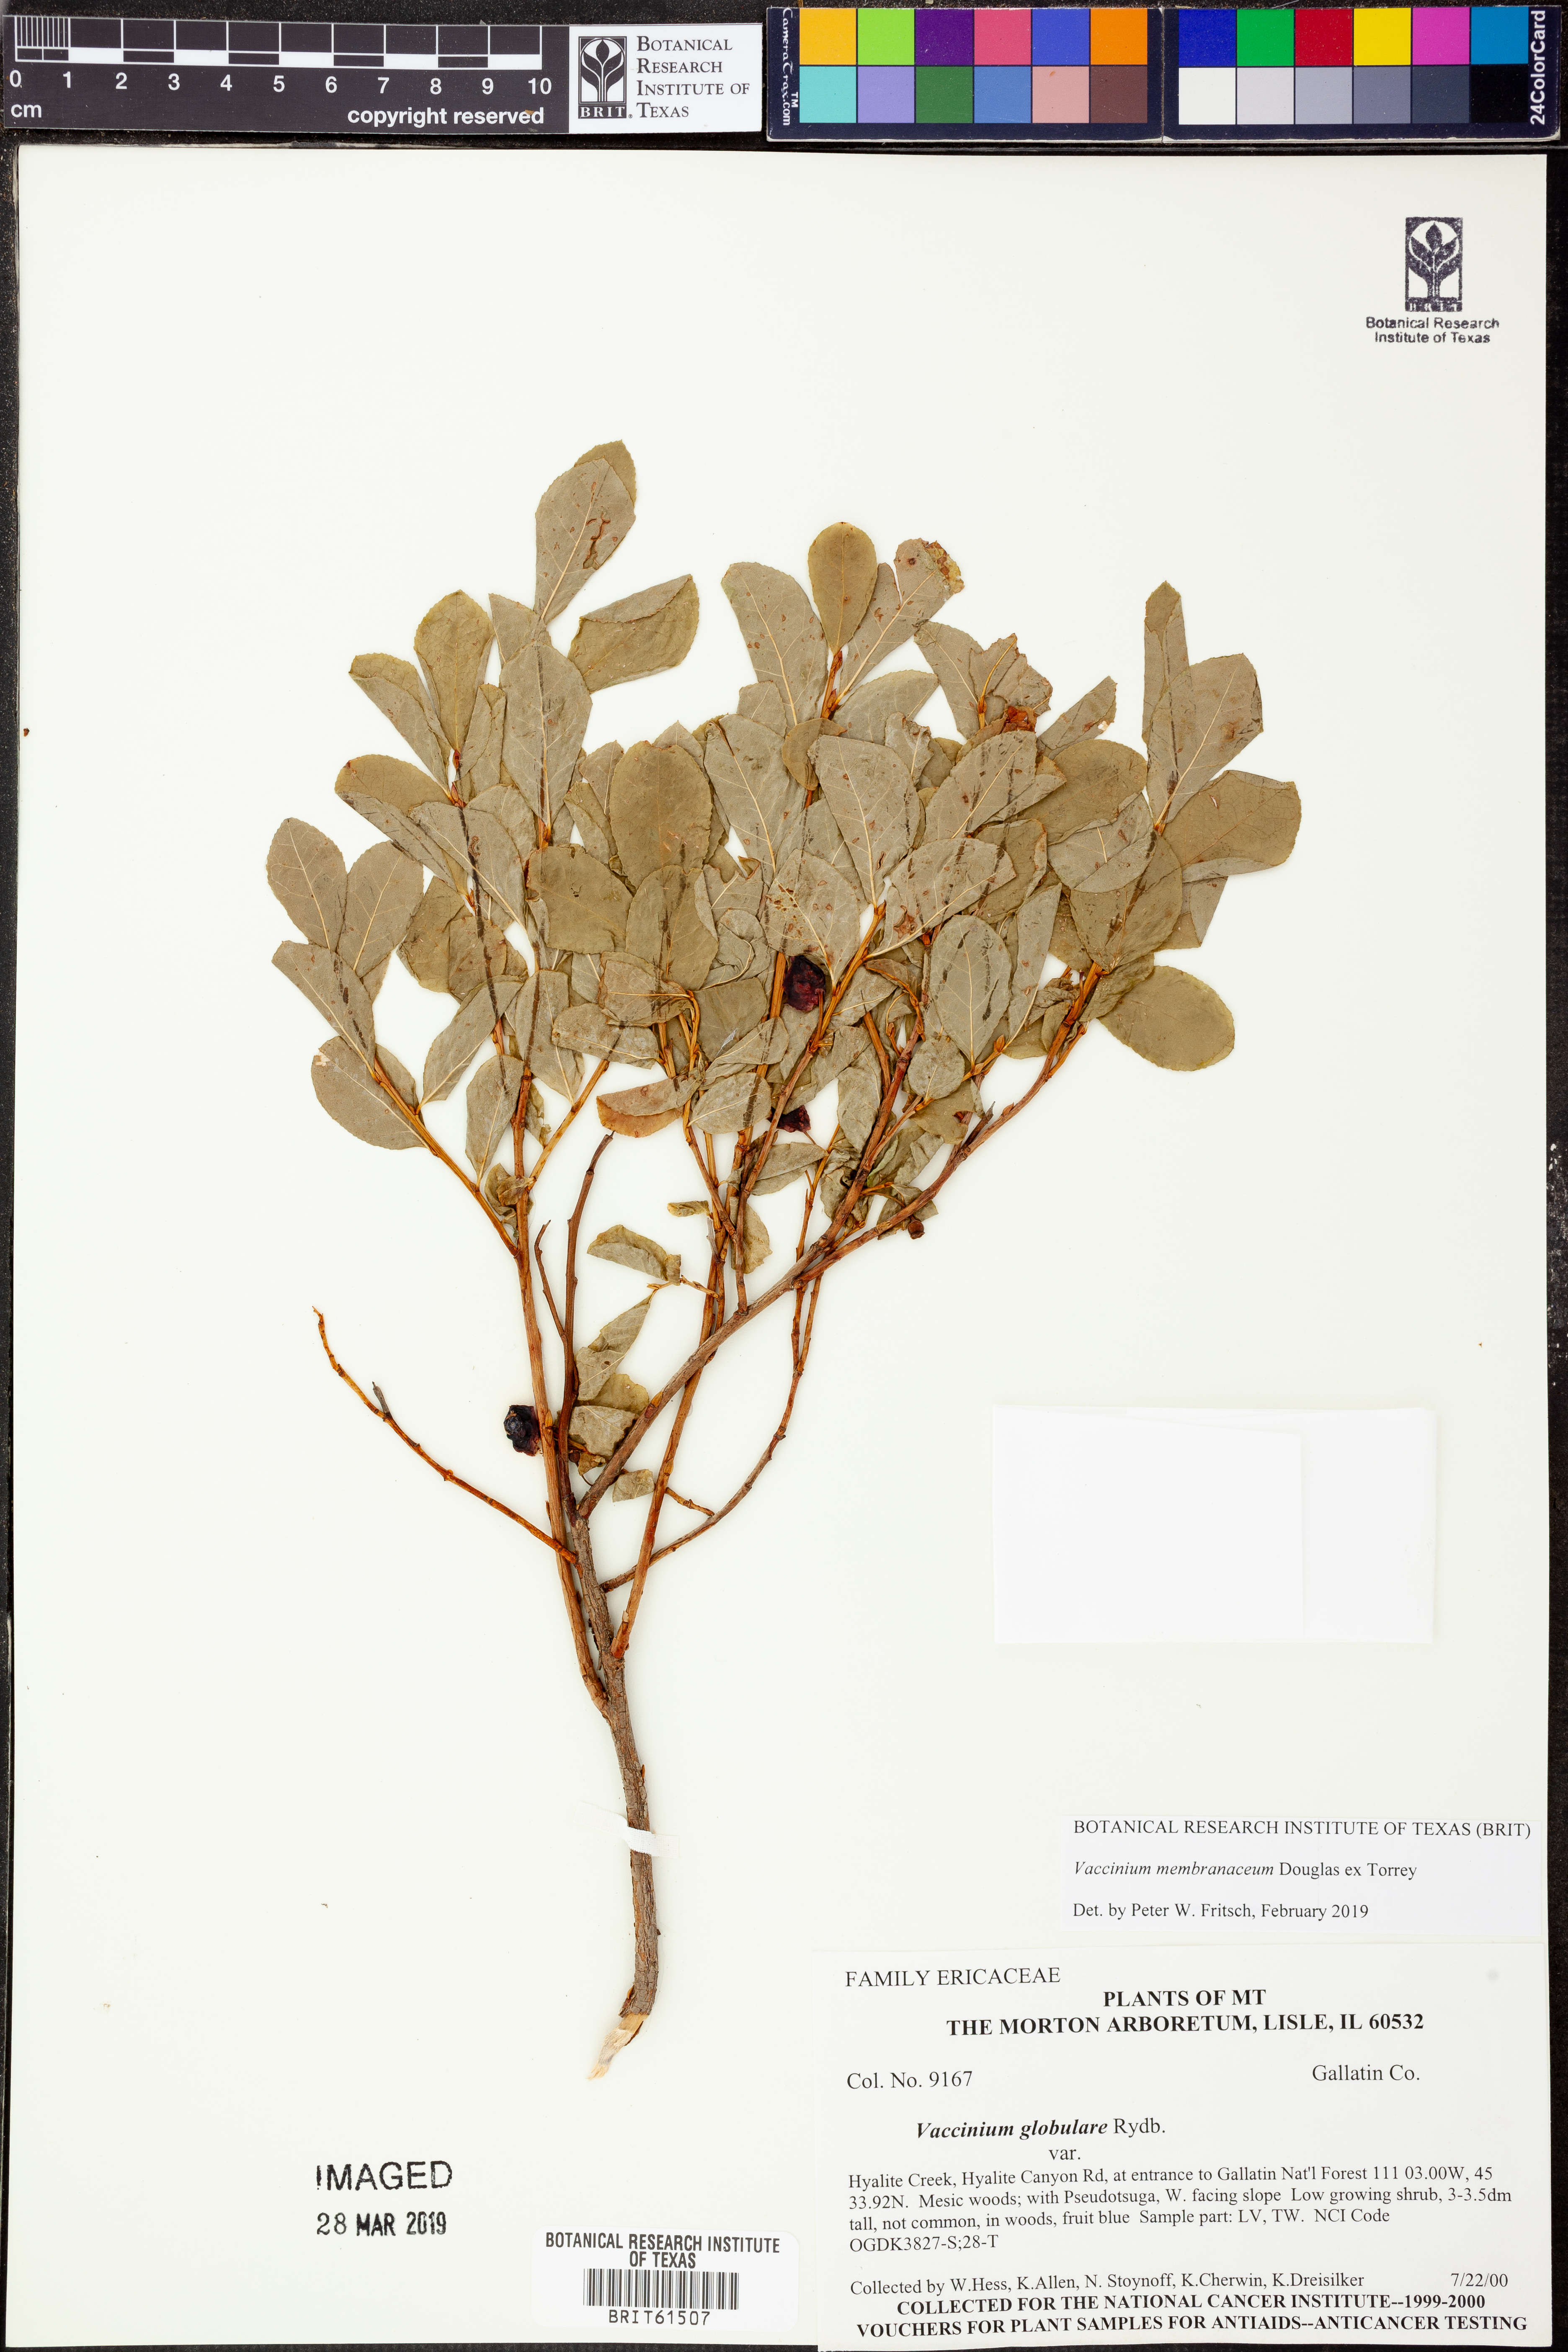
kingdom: Plantae
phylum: Tracheophyta
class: Magnoliopsida
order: Ericales
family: Ericaceae
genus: Vaccinium
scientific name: Vaccinium membranaceum
